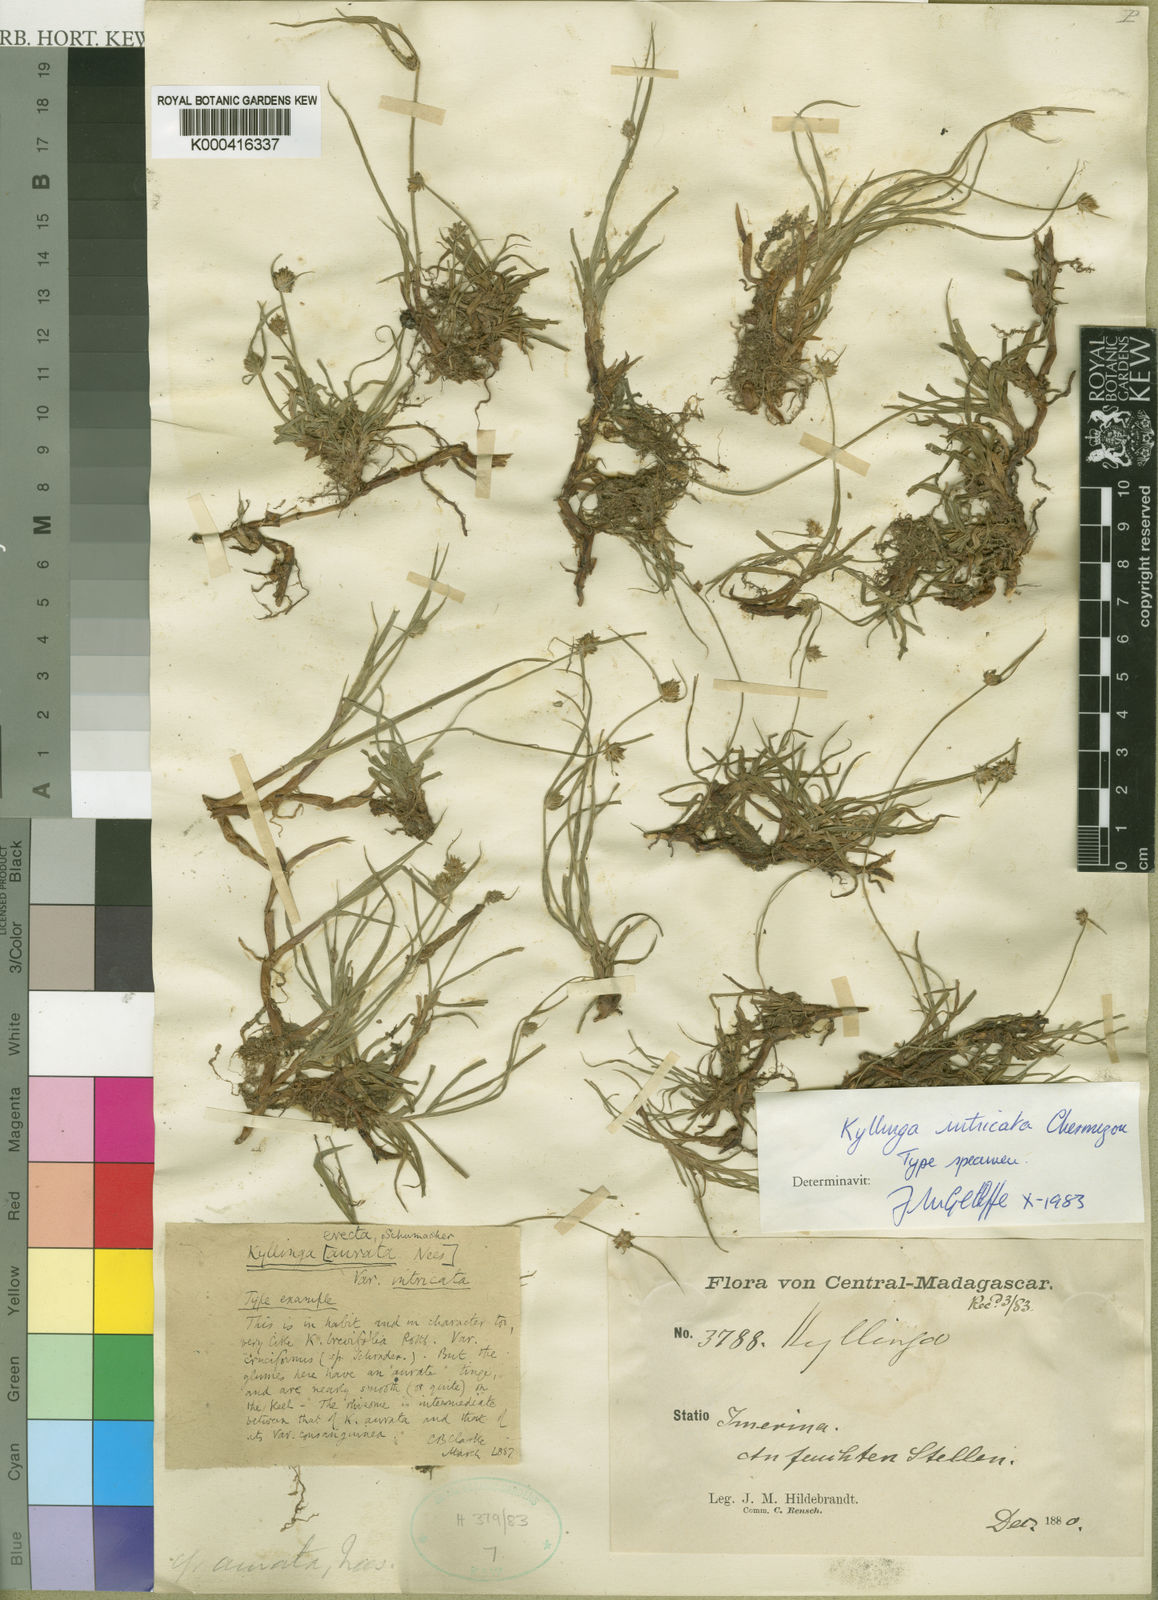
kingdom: Plantae
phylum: Tracheophyta
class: Liliopsida
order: Poales
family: Cyperaceae
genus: Cyperus
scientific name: Cyperus erectus
